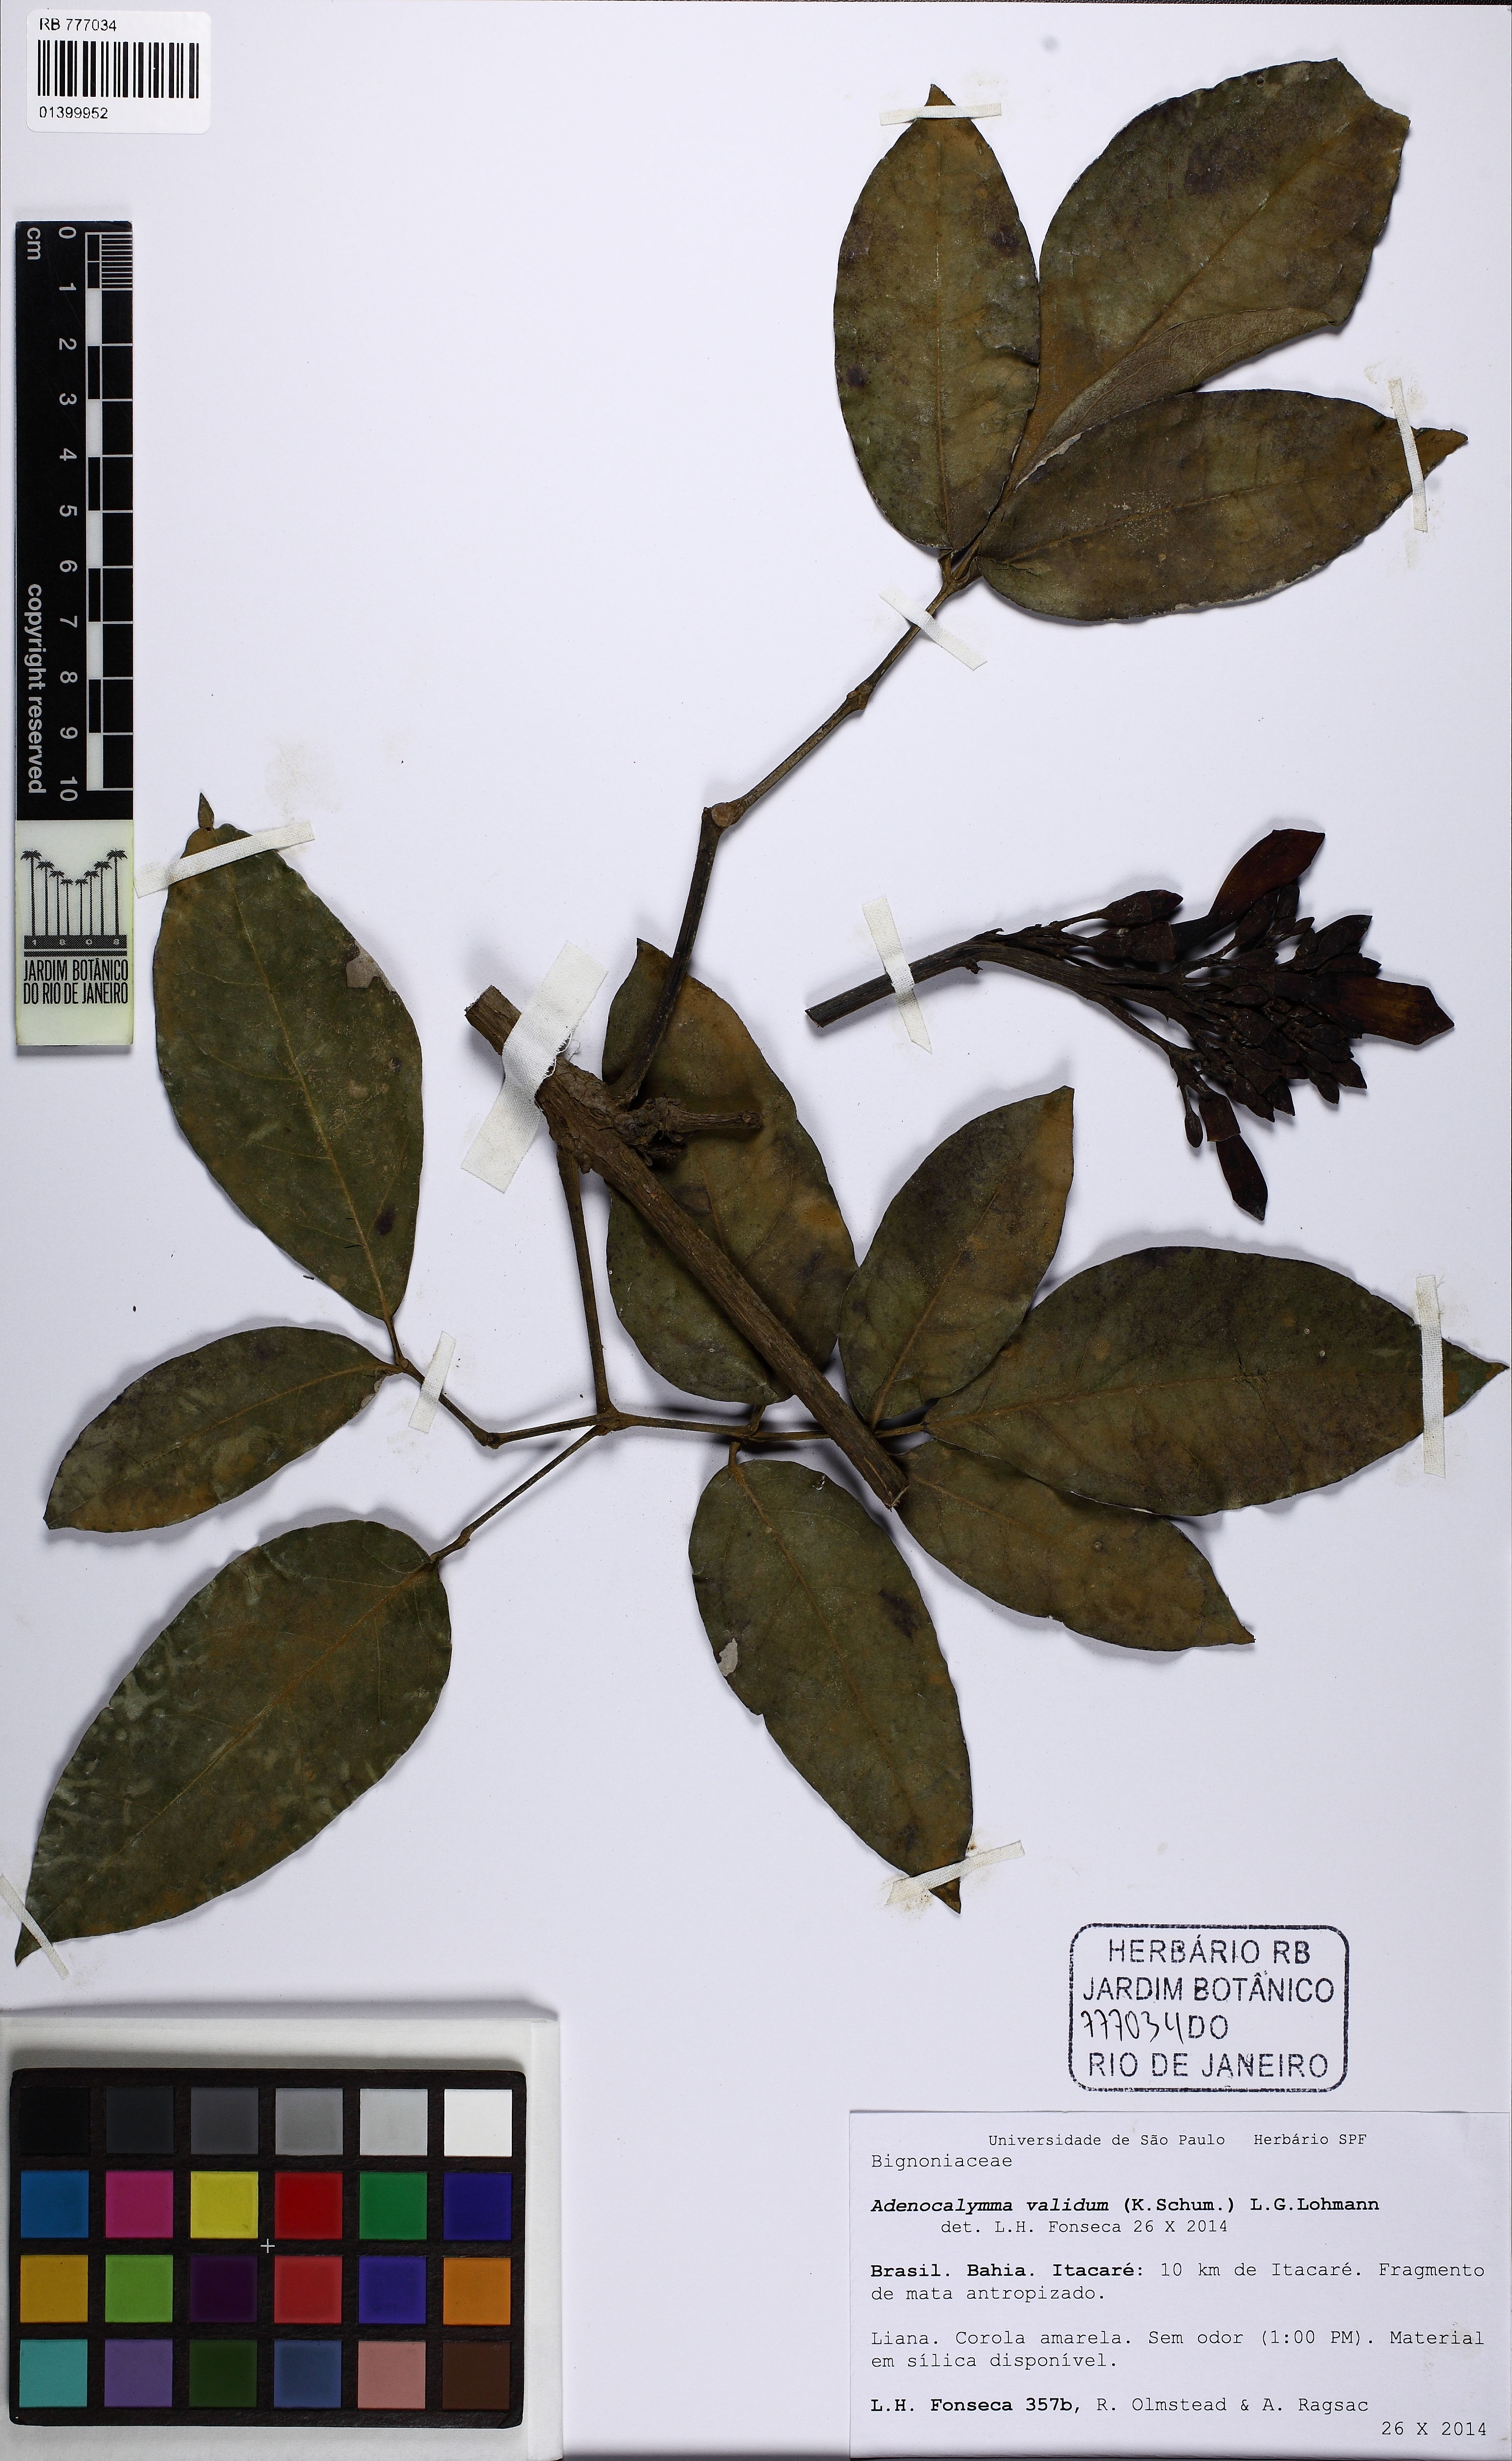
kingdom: Plantae
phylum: Tracheophyta
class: Magnoliopsida
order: Lamiales
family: Bignoniaceae
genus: Adenocalymma
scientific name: Adenocalymma validum
